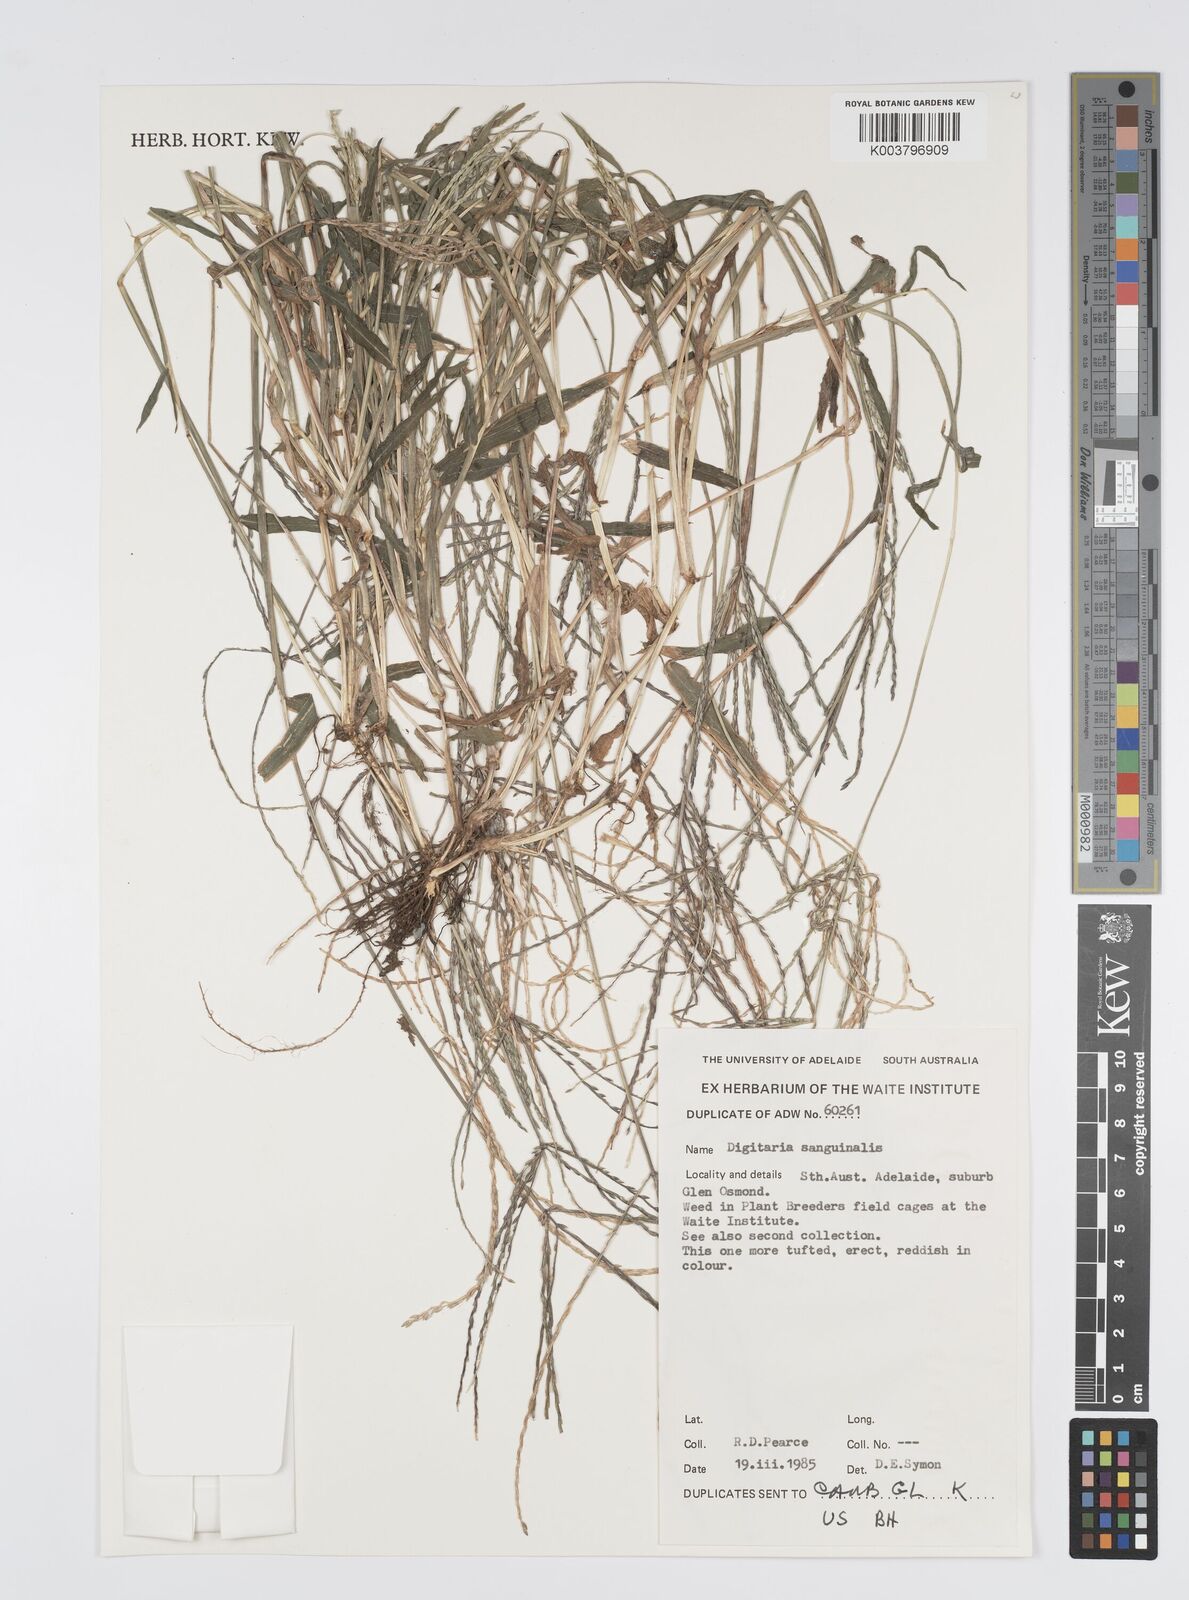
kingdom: Plantae
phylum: Tracheophyta
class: Liliopsida
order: Poales
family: Poaceae
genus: Digitaria
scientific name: Digitaria sanguinalis
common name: Hairy crabgrass
